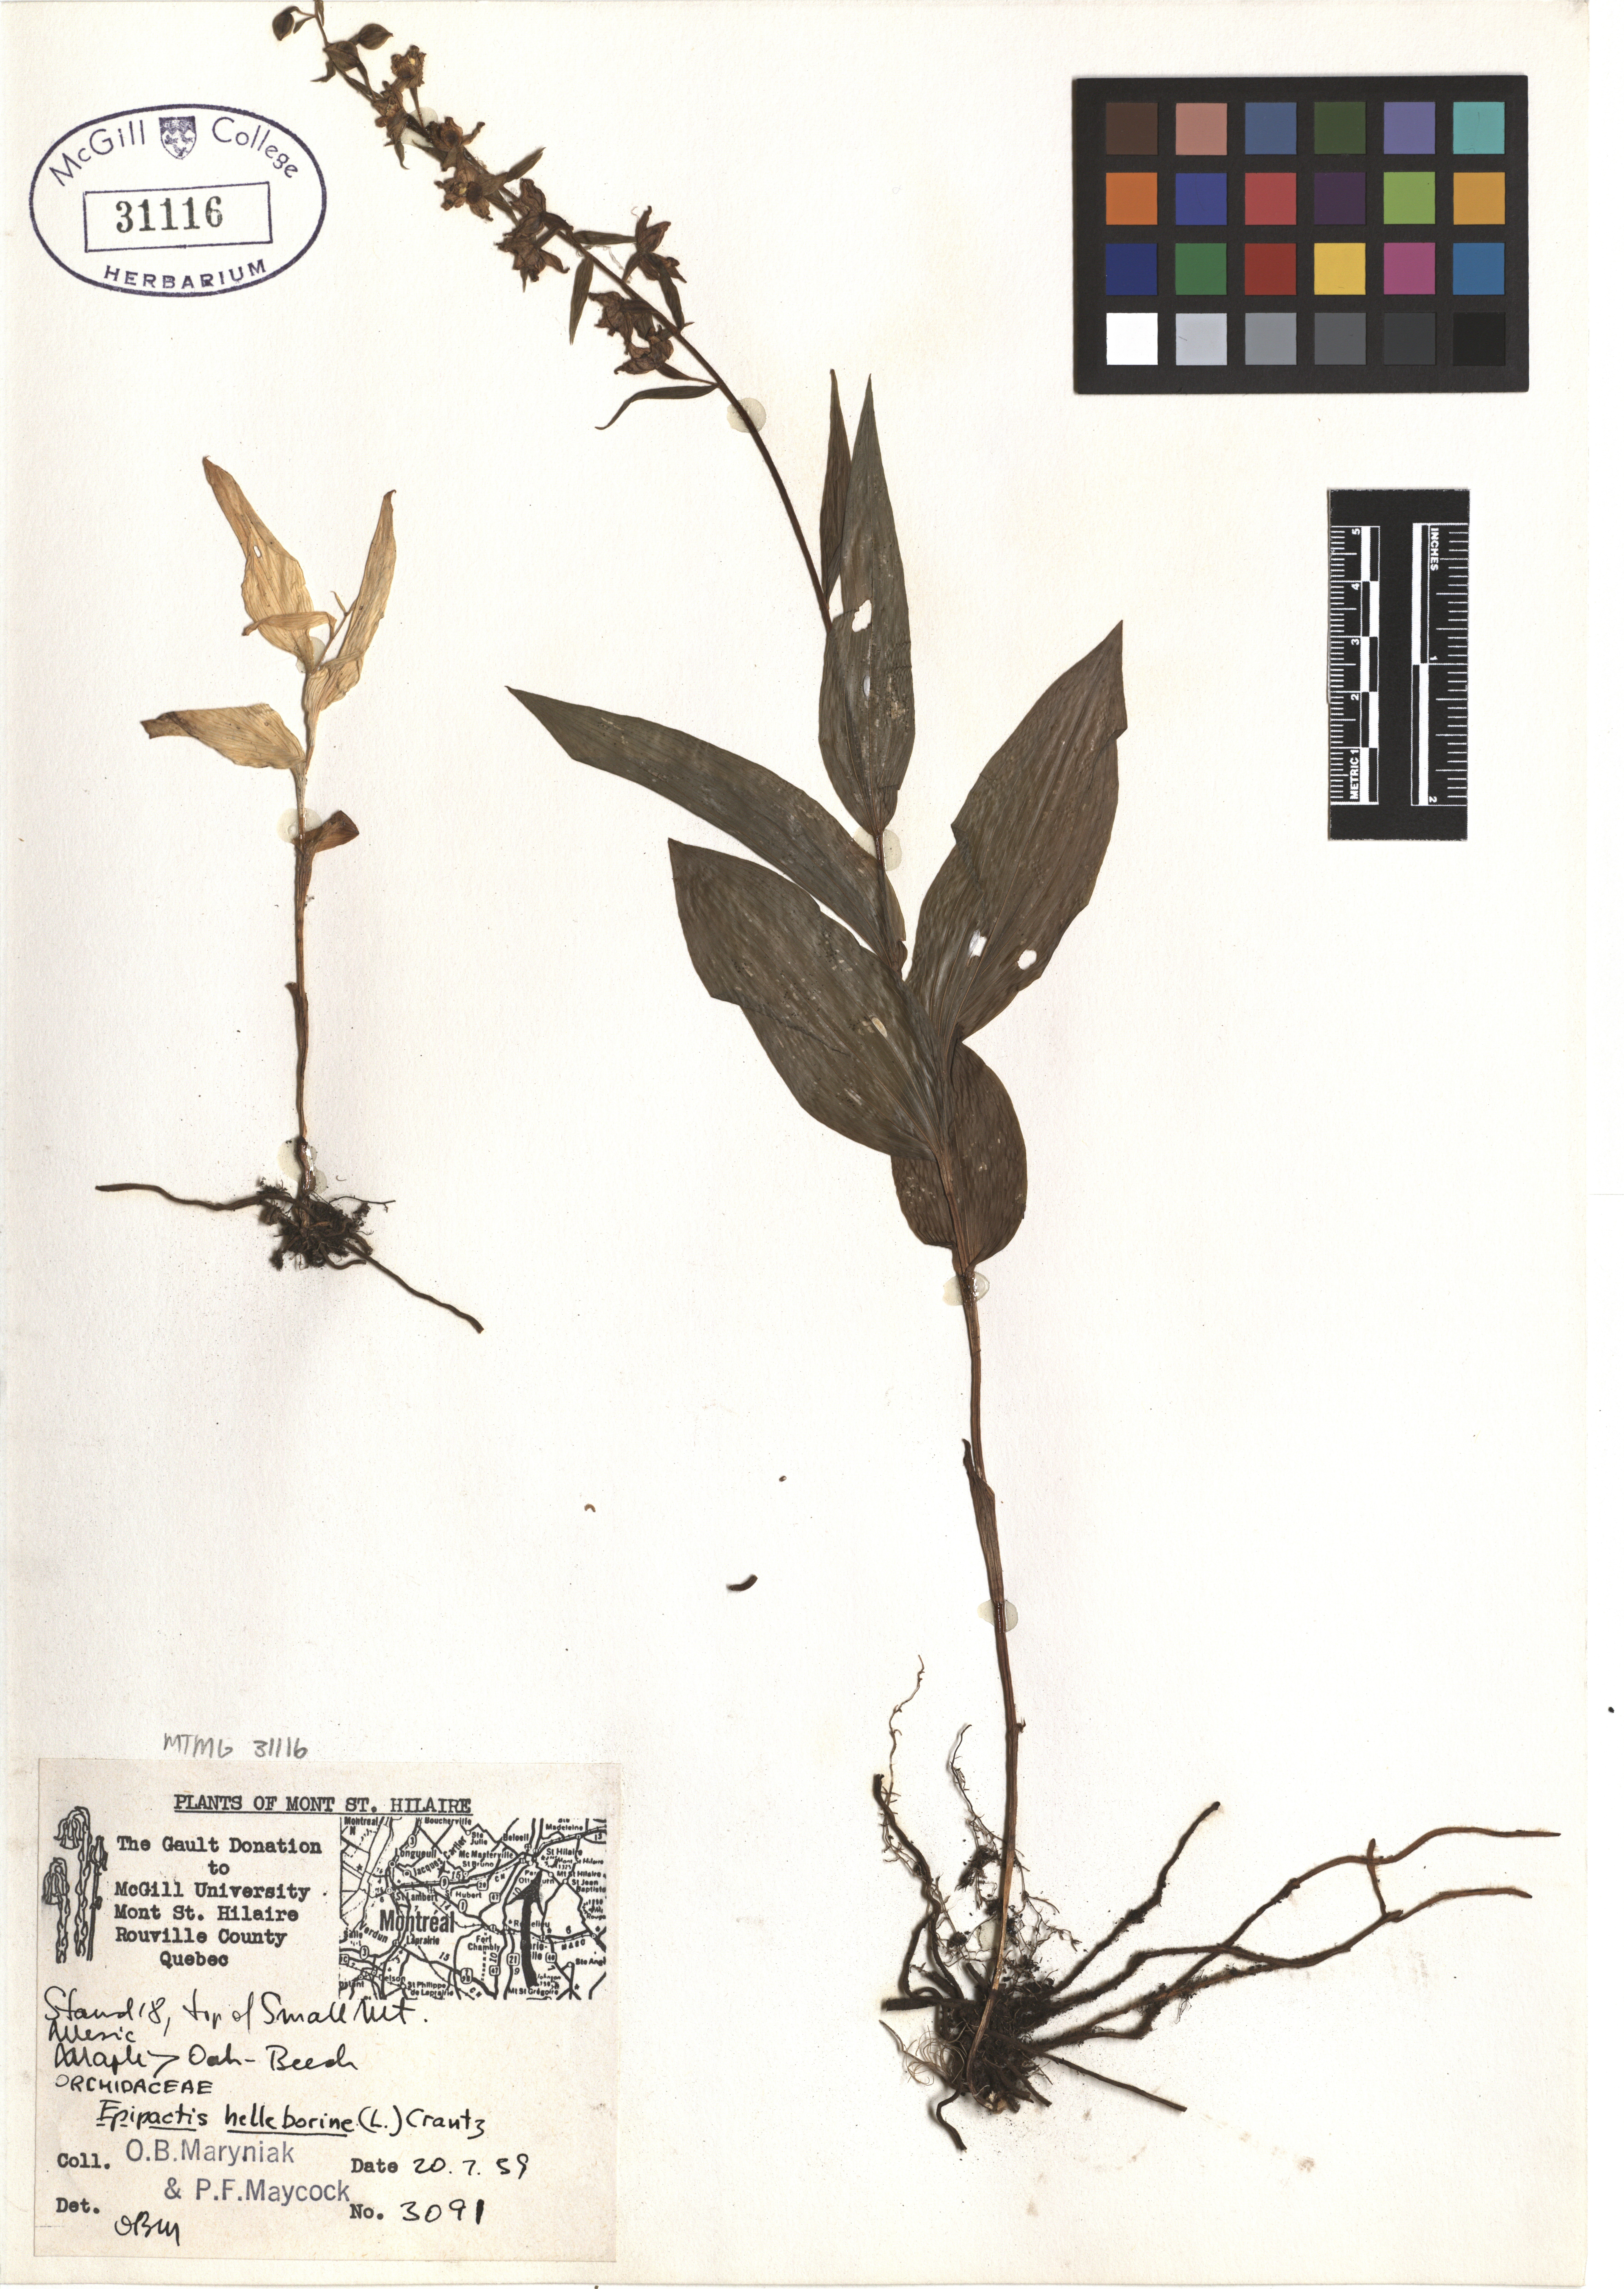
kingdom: Plantae
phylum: Tracheophyta
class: Liliopsida
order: Asparagales
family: Orchidaceae
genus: Epipactis
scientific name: Epipactis helleborine
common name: Broad-leaved helleborine
